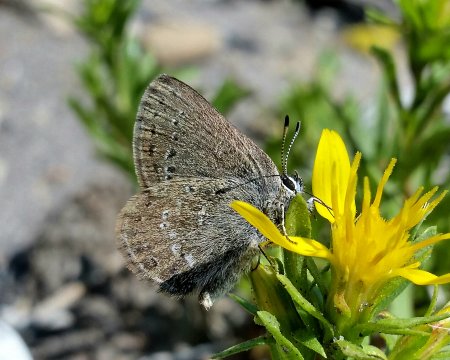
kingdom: Animalia
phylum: Arthropoda
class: Insecta
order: Lepidoptera
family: Lycaenidae
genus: Satyrium
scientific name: Satyrium fuliginosa
